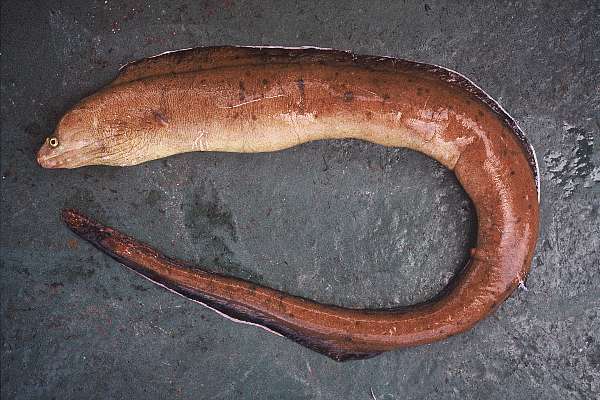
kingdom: Animalia
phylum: Chordata
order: Anguilliformes
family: Muraenidae
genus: Gymnothorax
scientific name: Gymnothorax hansi
